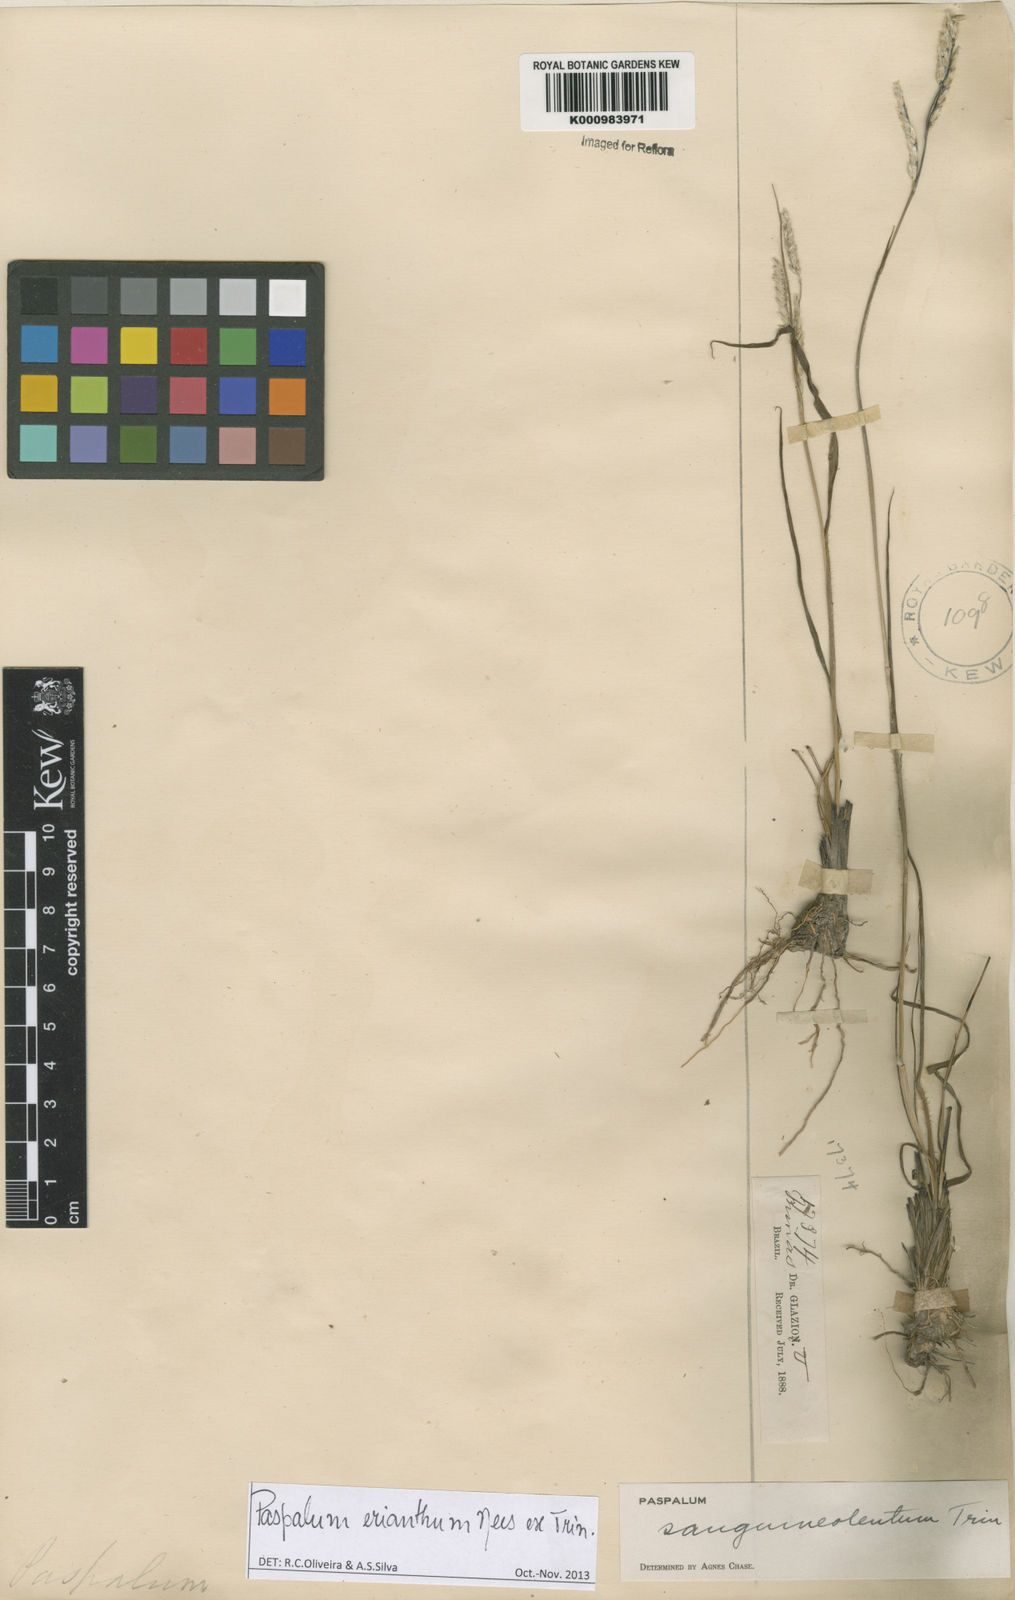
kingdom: Plantae
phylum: Tracheophyta
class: Liliopsida
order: Poales
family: Poaceae
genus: Paspalum
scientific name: Paspalum erianthum
